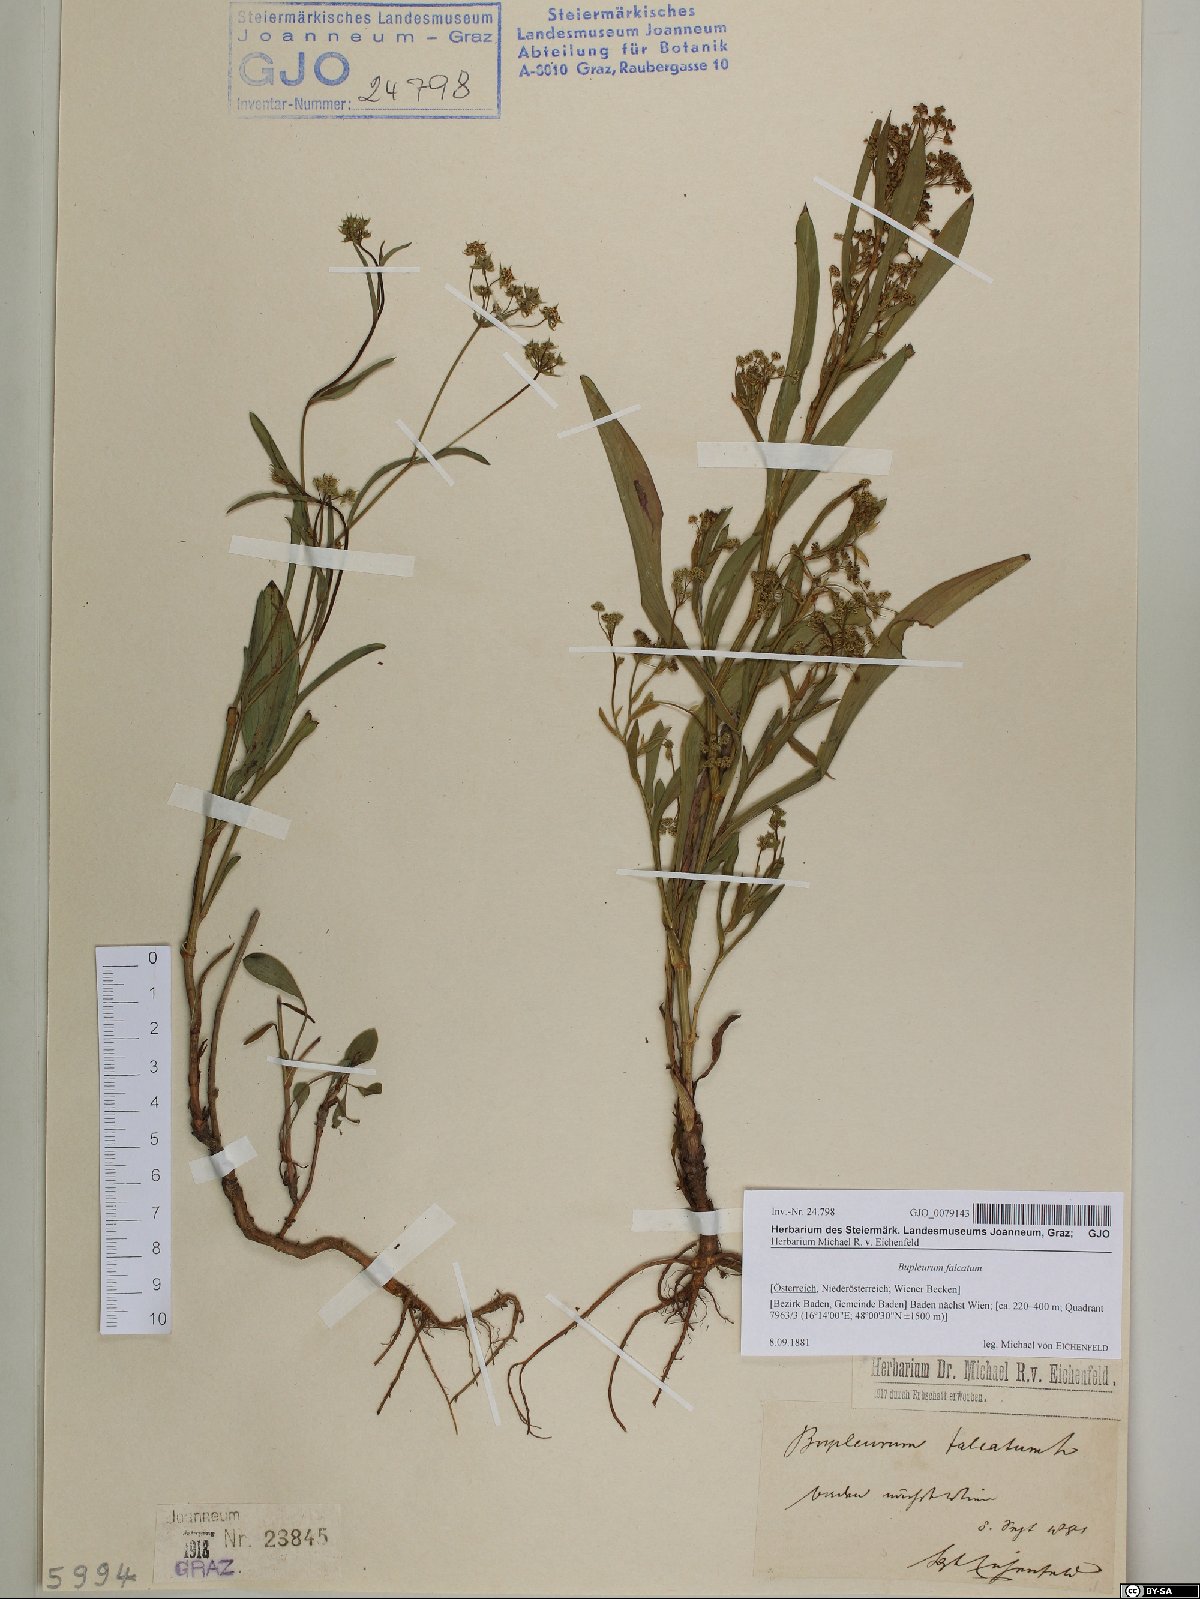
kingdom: Plantae
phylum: Tracheophyta
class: Magnoliopsida
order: Apiales
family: Apiaceae
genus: Bupleurum
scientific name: Bupleurum falcatum
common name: Sickle-leaved hare's-ear
